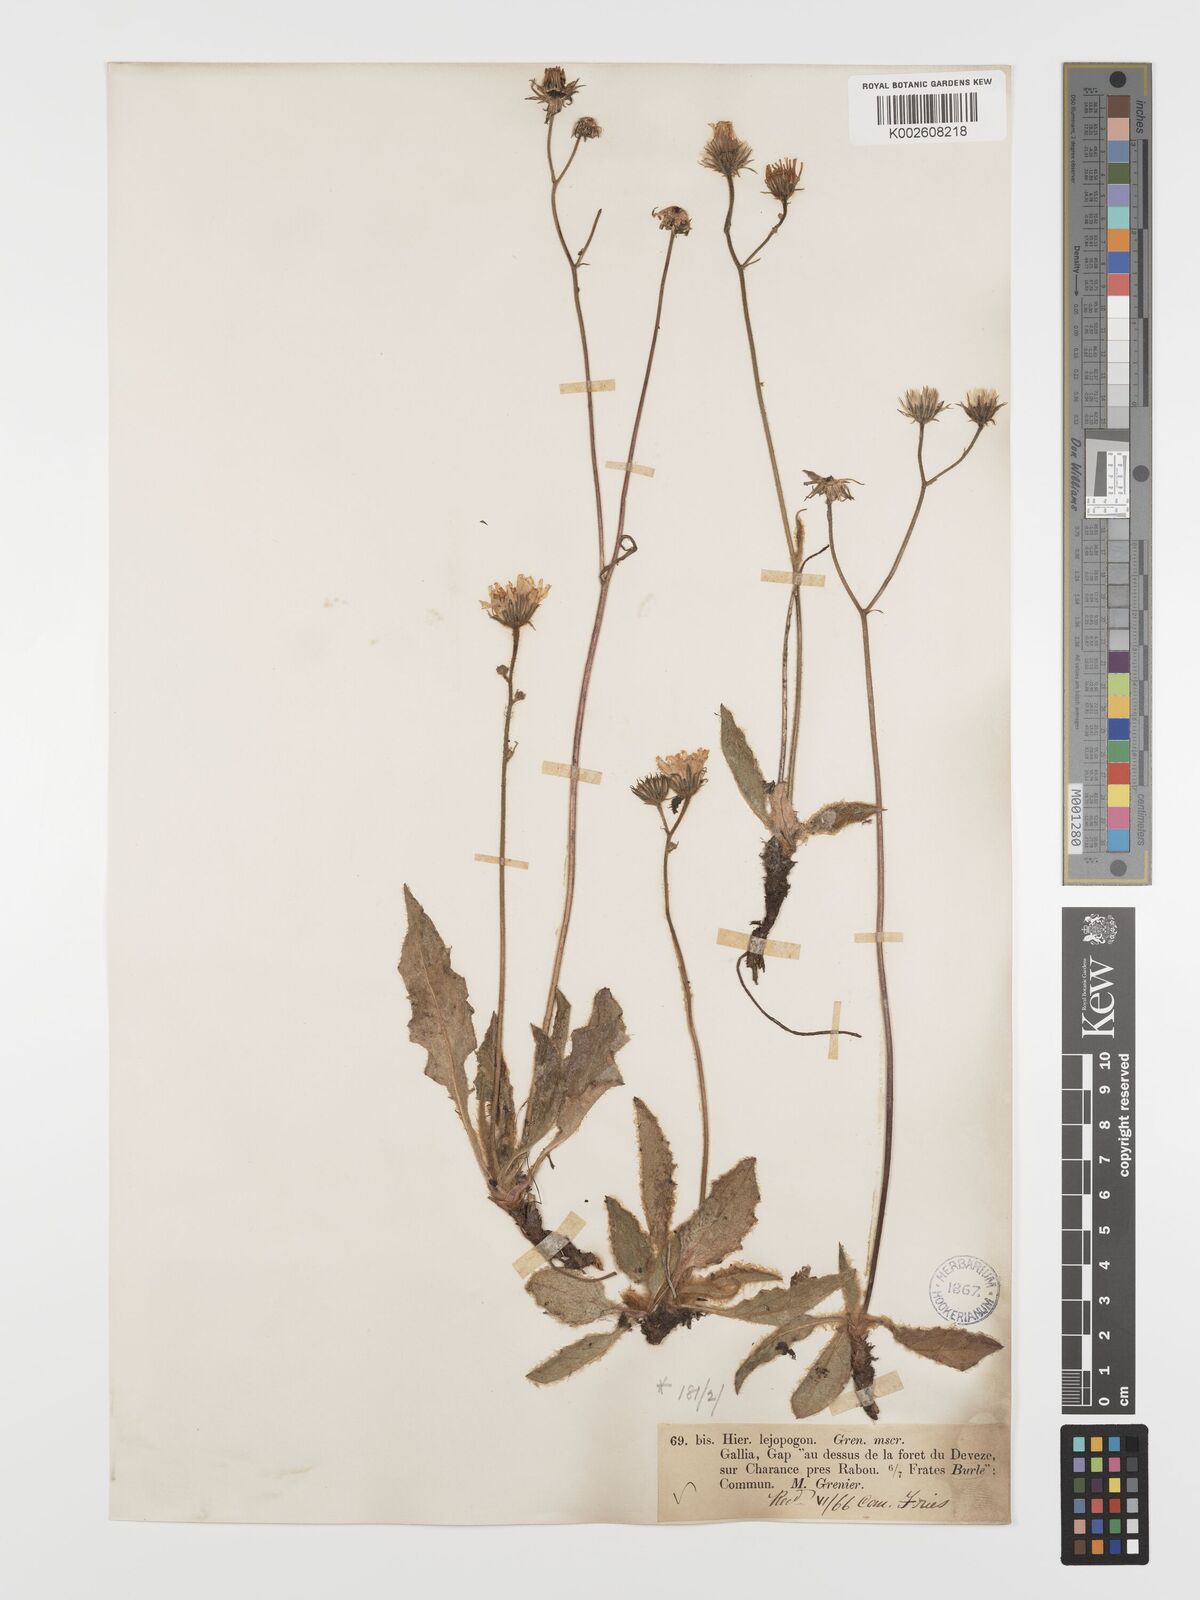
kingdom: Plantae
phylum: Tracheophyta
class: Magnoliopsida
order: Asterales
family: Asteraceae
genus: Hieracium
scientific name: Hieracium leiopogon
